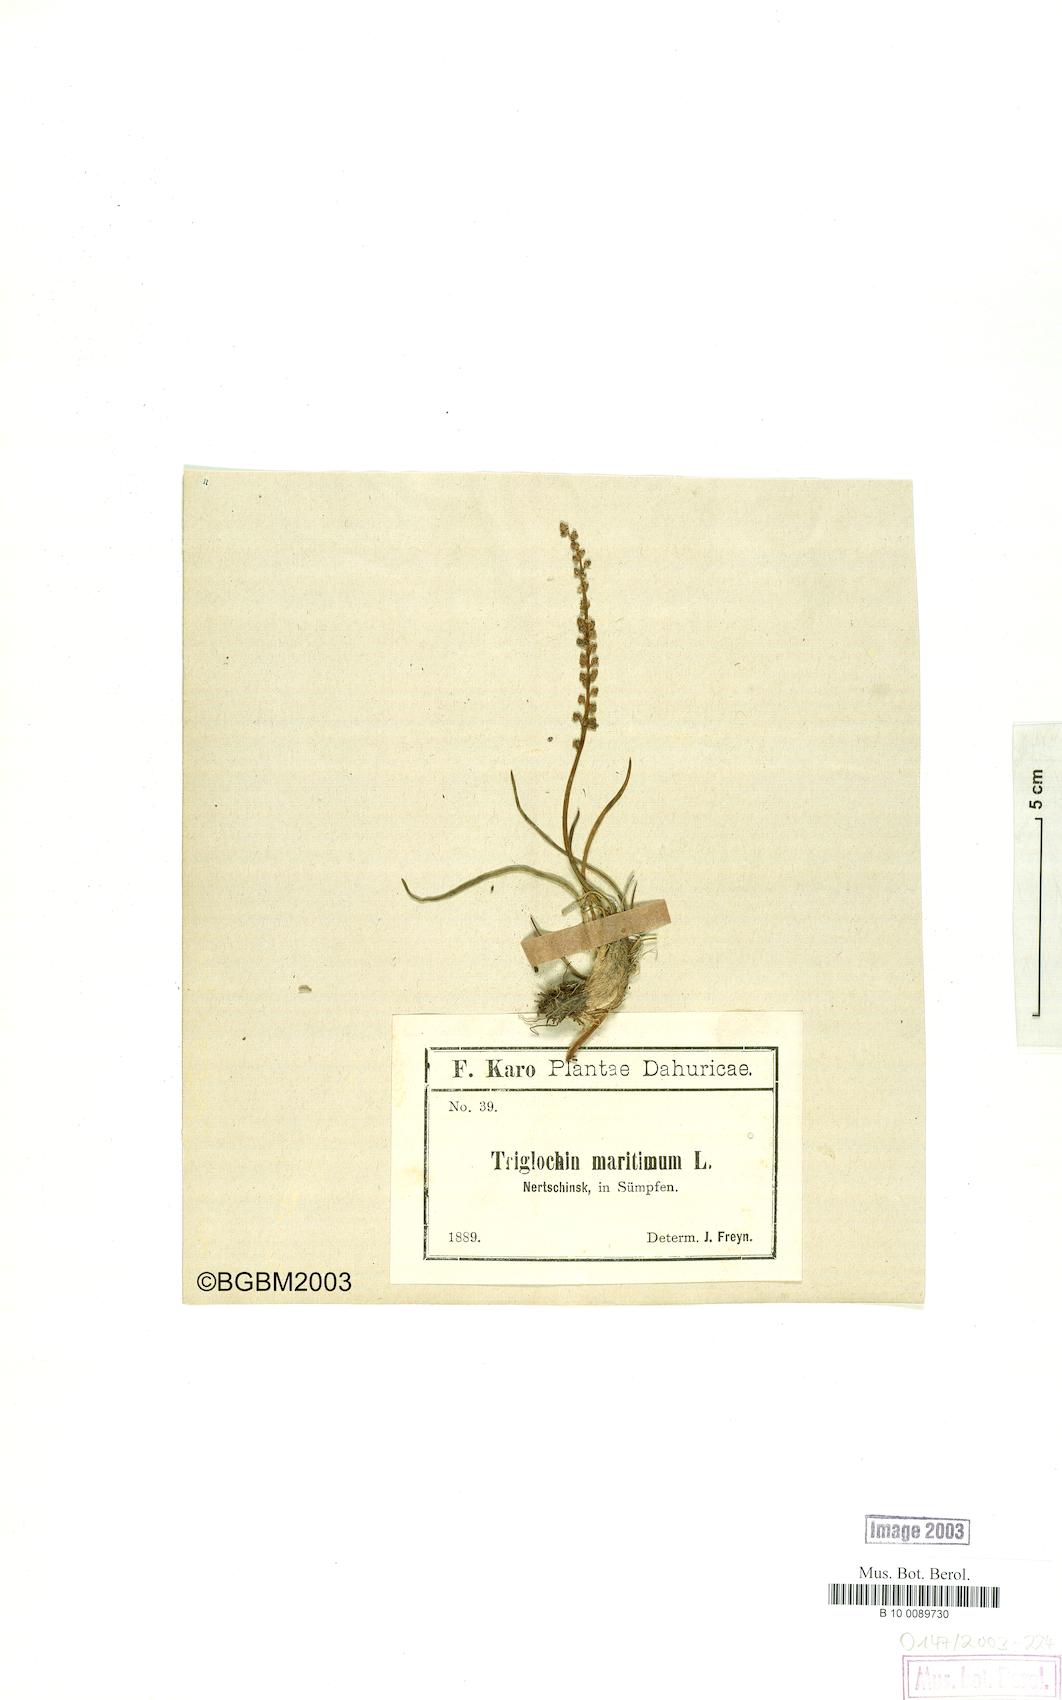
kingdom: Plantae
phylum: Tracheophyta
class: Liliopsida
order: Alismatales
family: Juncaginaceae
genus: Triglochin
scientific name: Triglochin maritima
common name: Sea arrowgrass
